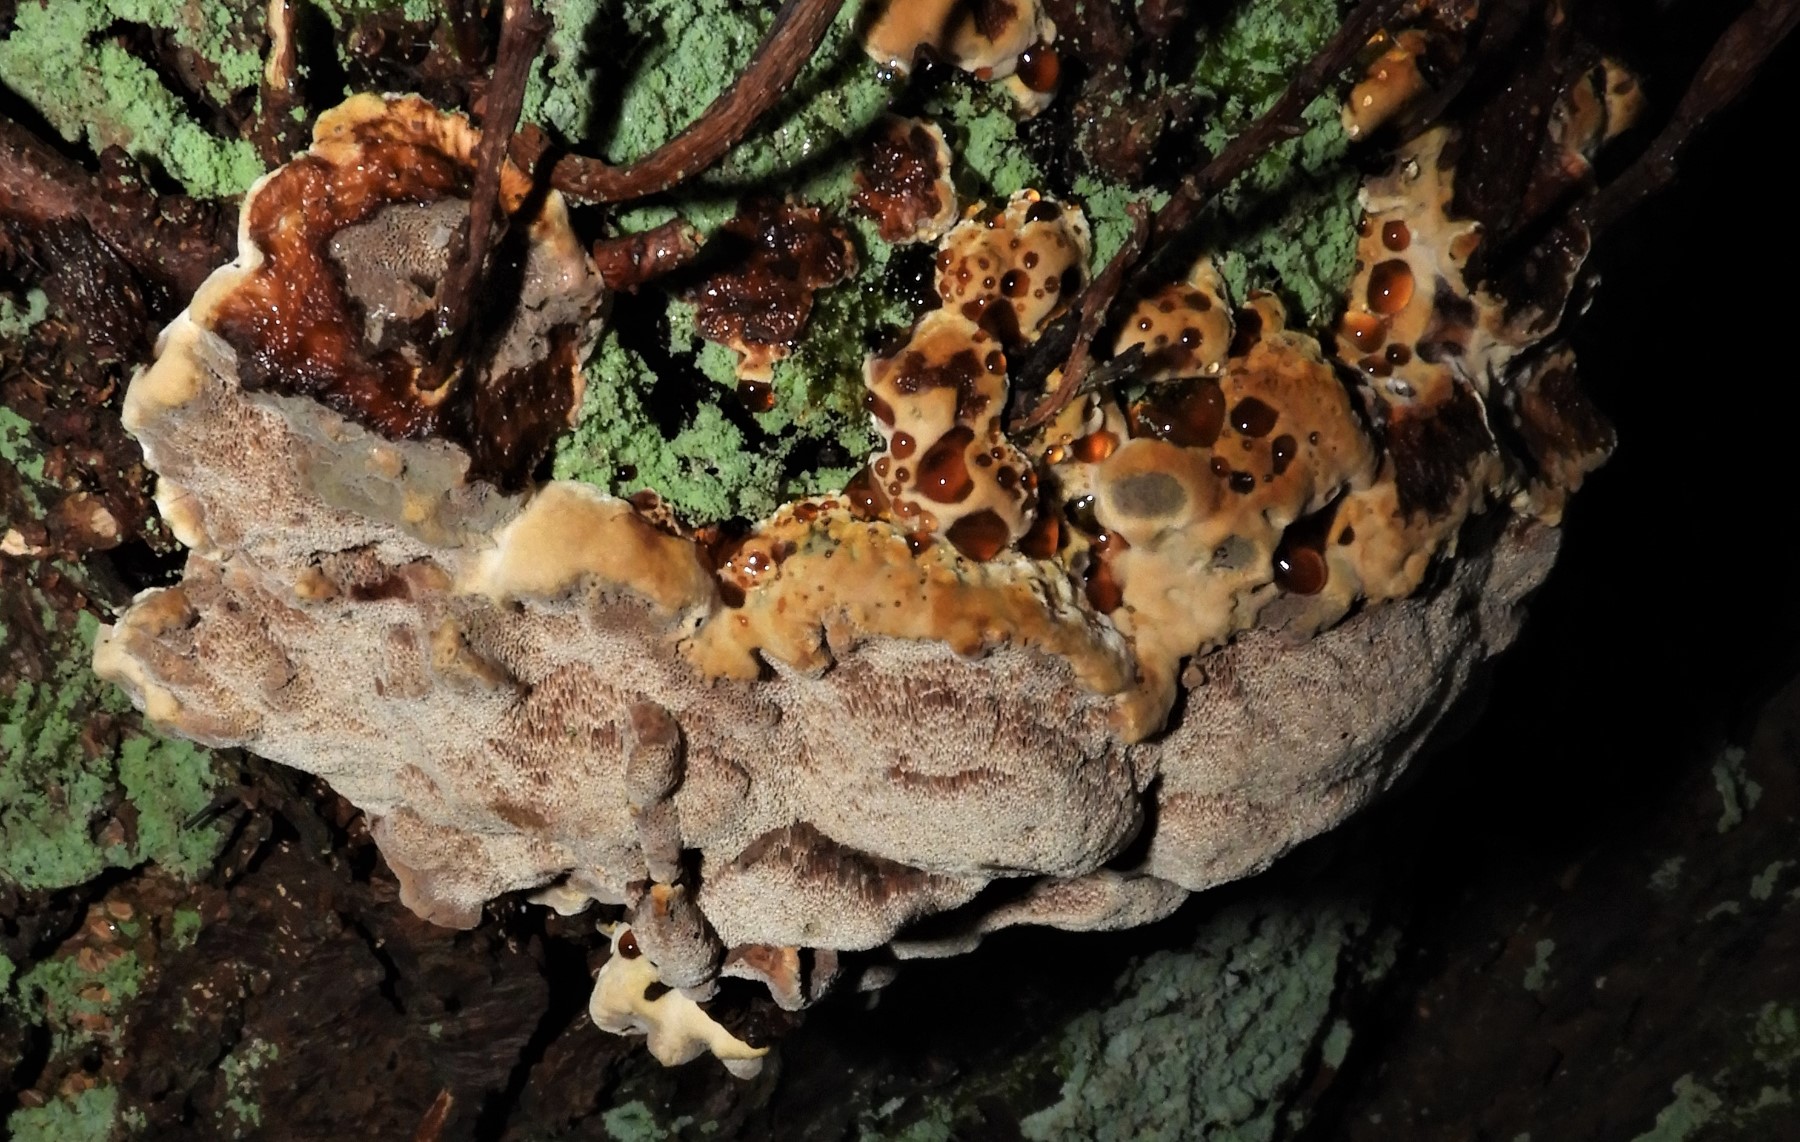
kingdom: Fungi
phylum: Basidiomycota
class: Agaricomycetes
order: Hymenochaetales
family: Hymenochaetaceae
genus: Xanthoporia
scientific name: Xanthoporia radiata
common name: elle-spejlporesvamp
